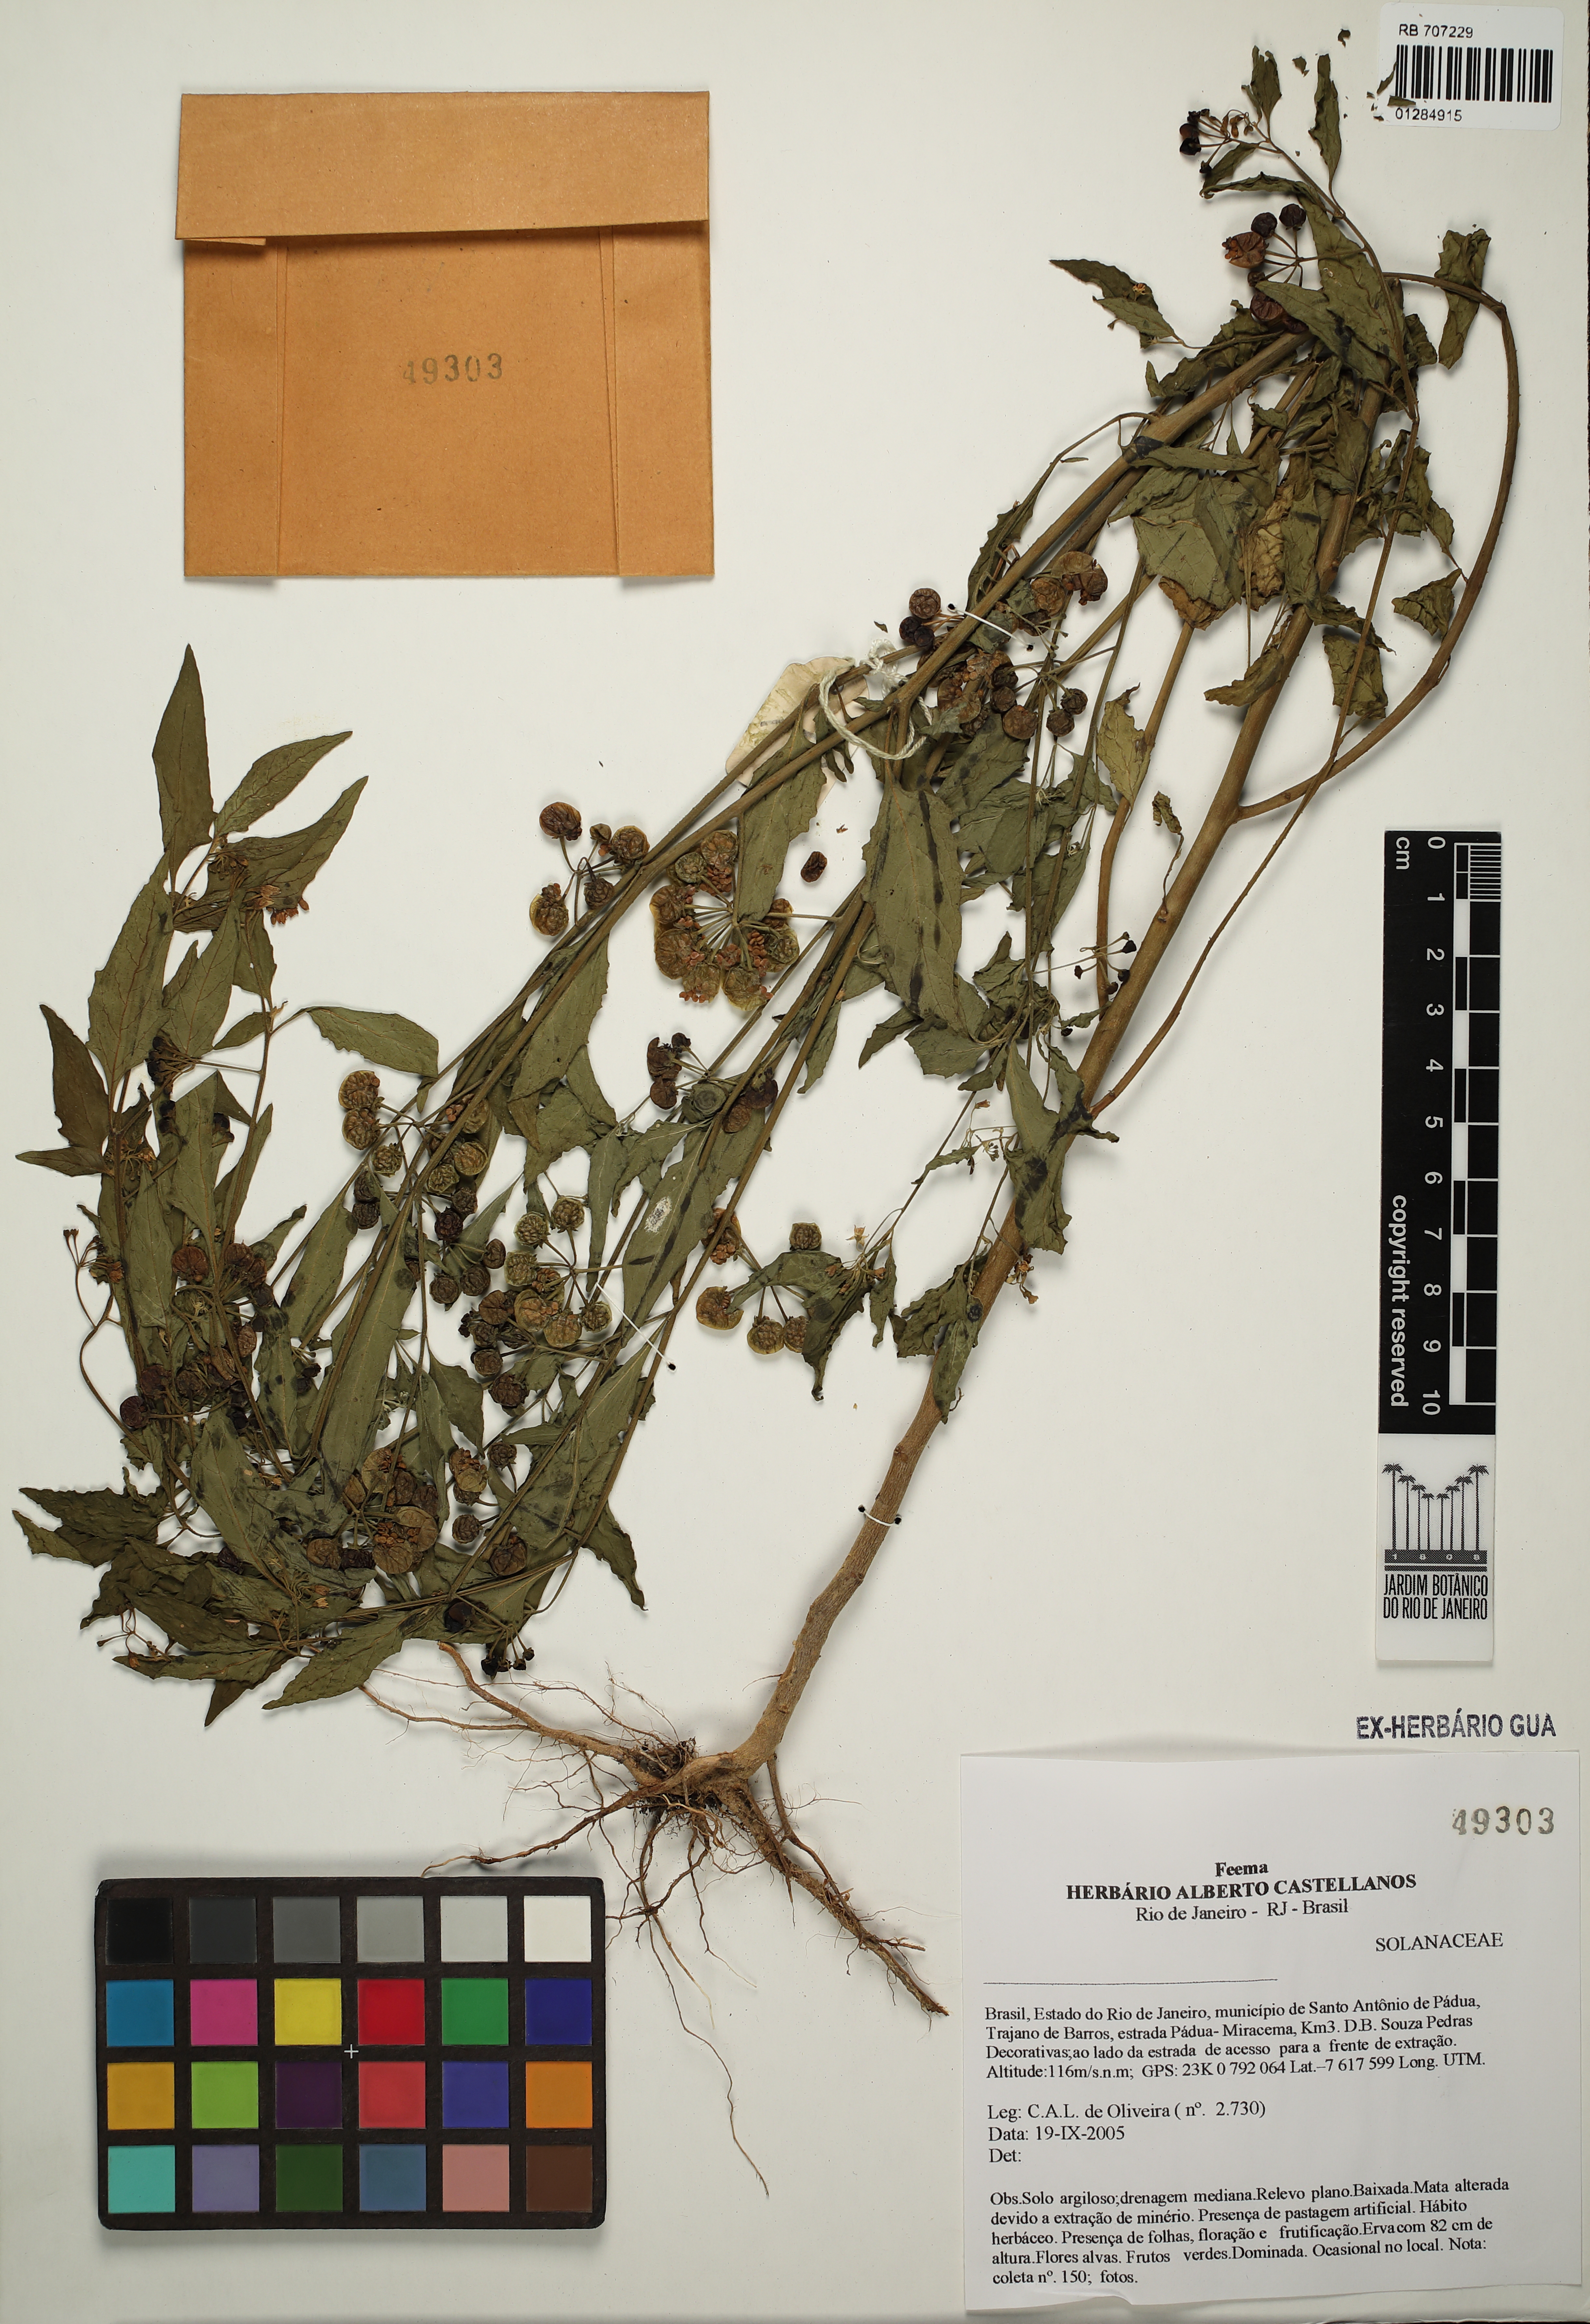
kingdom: Plantae
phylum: Tracheophyta
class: Magnoliopsida
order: Solanales
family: Solanaceae
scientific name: Solanaceae
